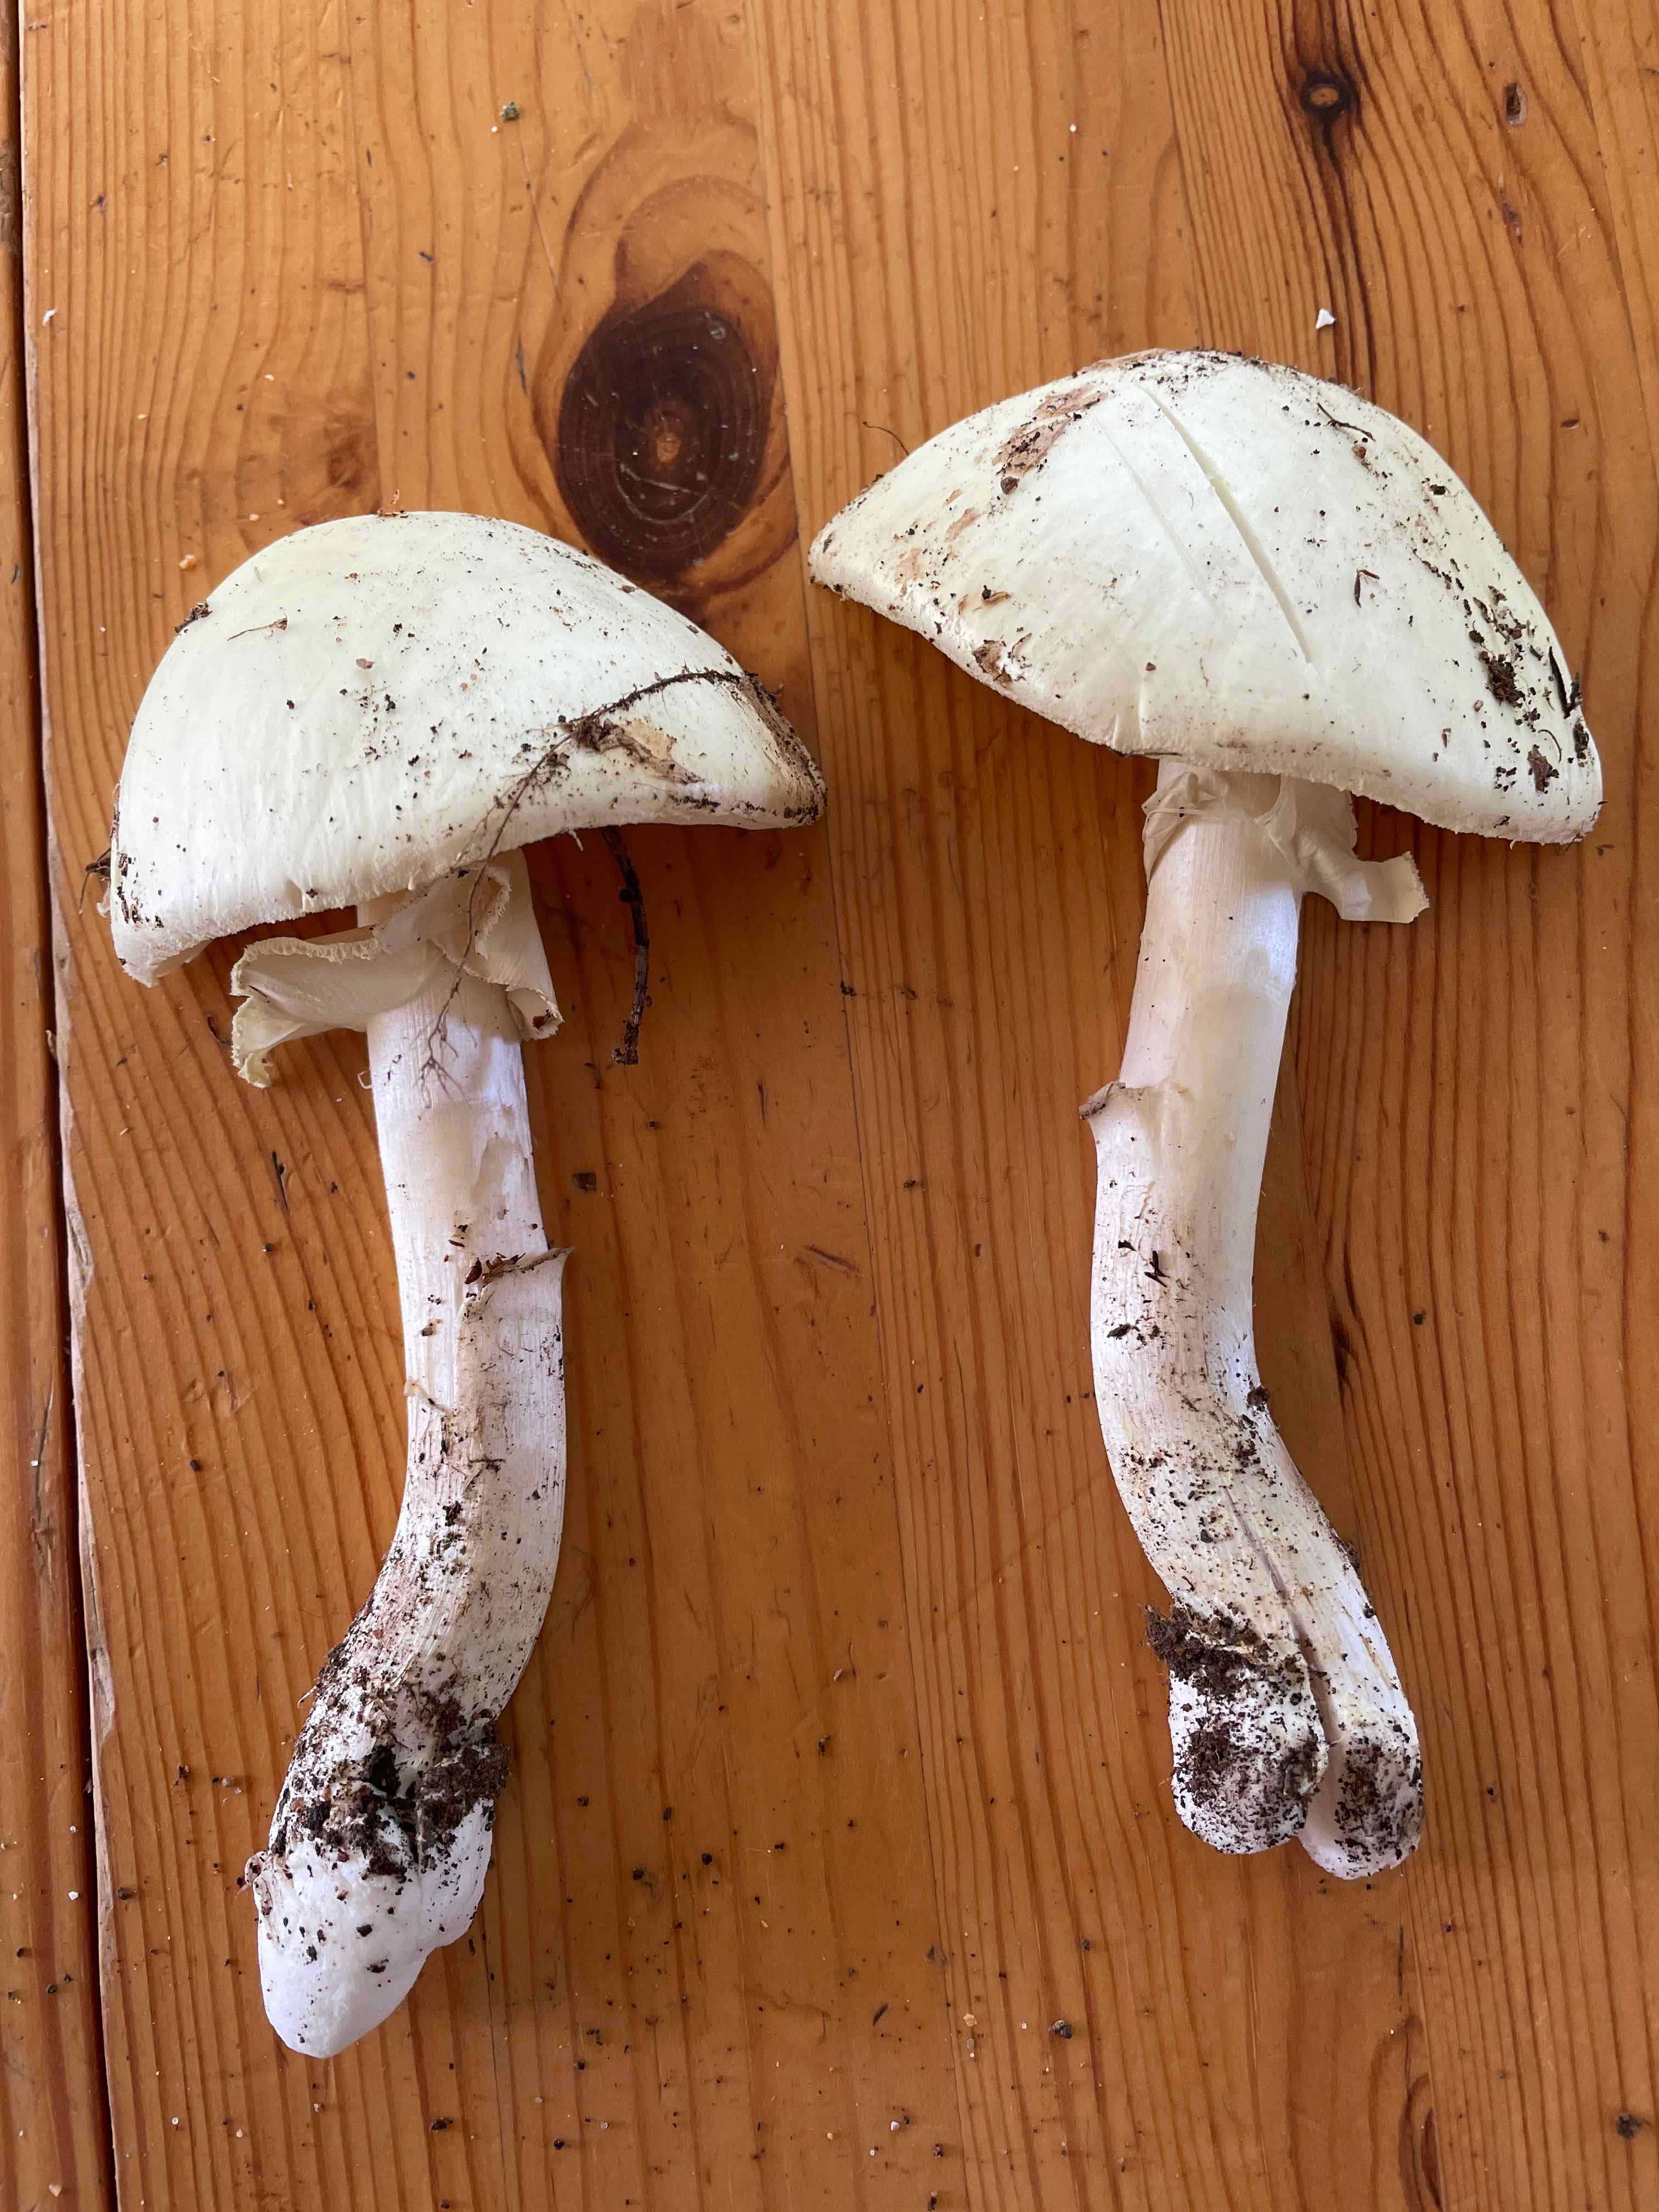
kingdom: Fungi
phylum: Basidiomycota
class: Agaricomycetes
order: Agaricales
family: Agaricaceae
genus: Leucoagaricus
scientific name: Leucoagaricus leucothites
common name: rosabladet silkehat
